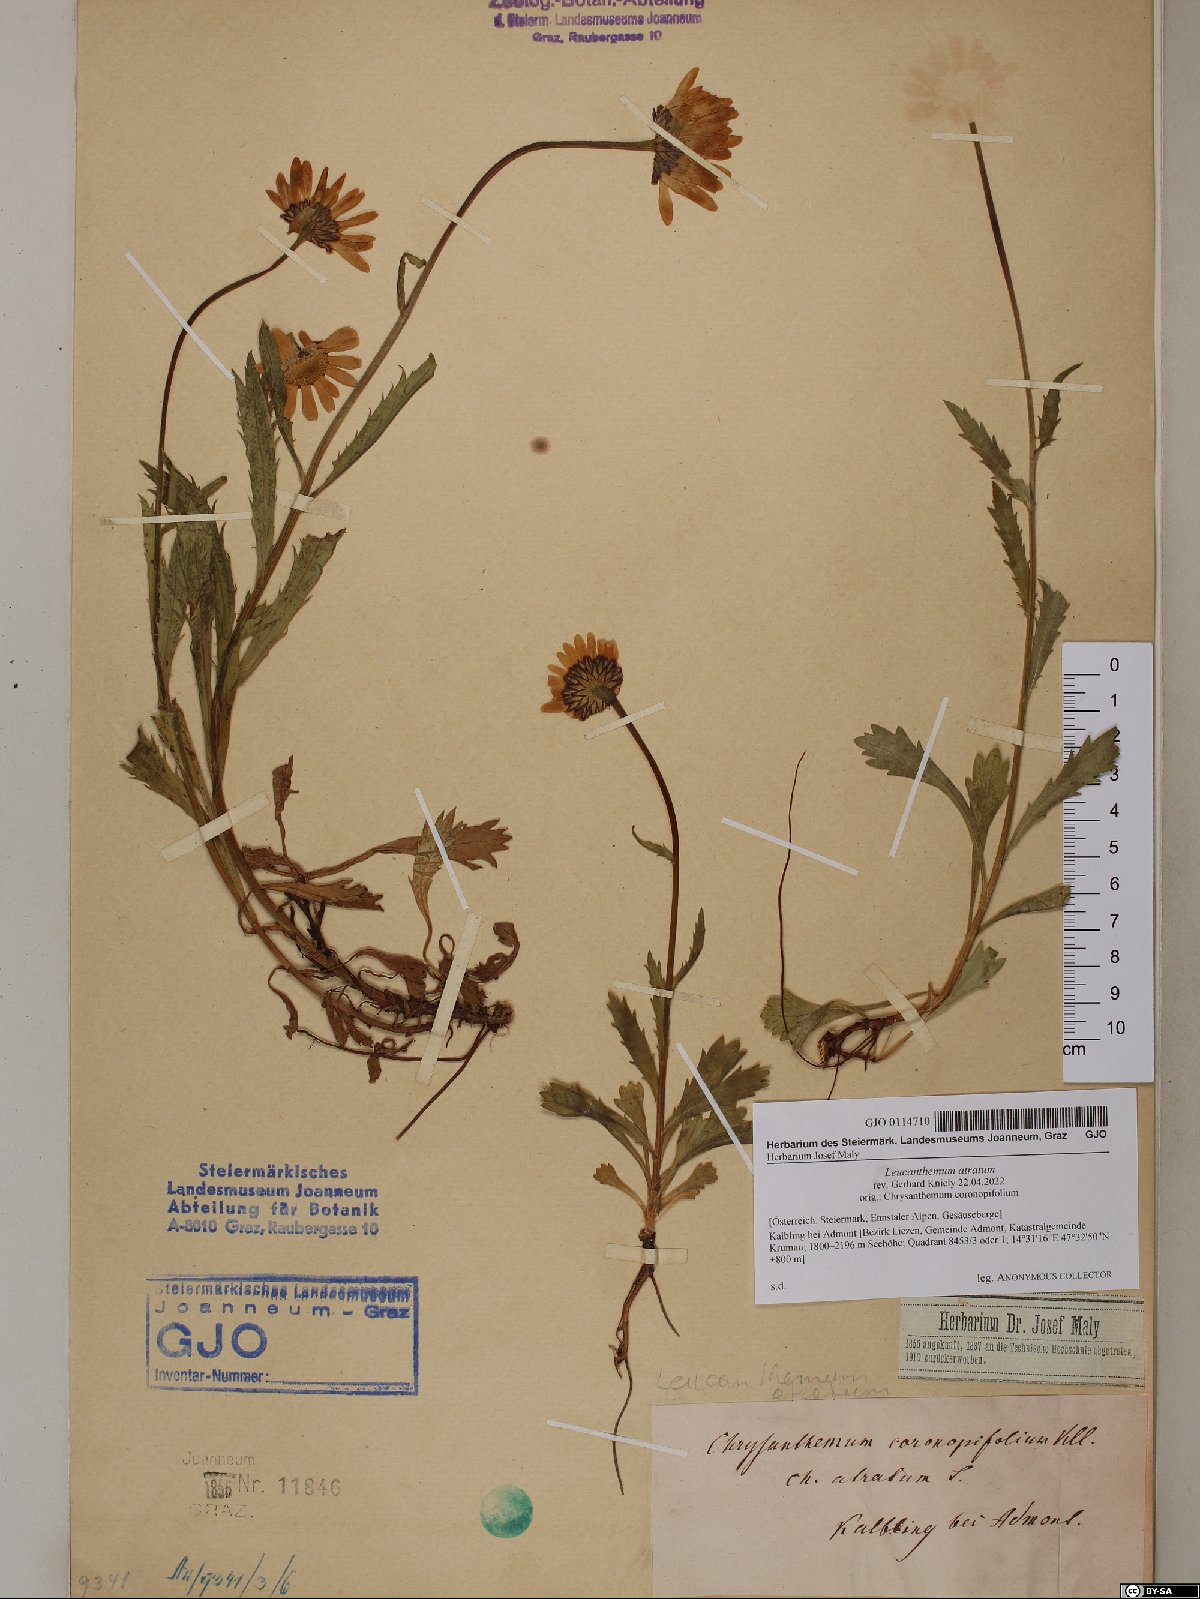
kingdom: Plantae
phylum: Tracheophyta
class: Magnoliopsida
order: Asterales
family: Asteraceae
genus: Leucanthemum
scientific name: Leucanthemum atratum
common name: Saw-leaved moon-daisy
